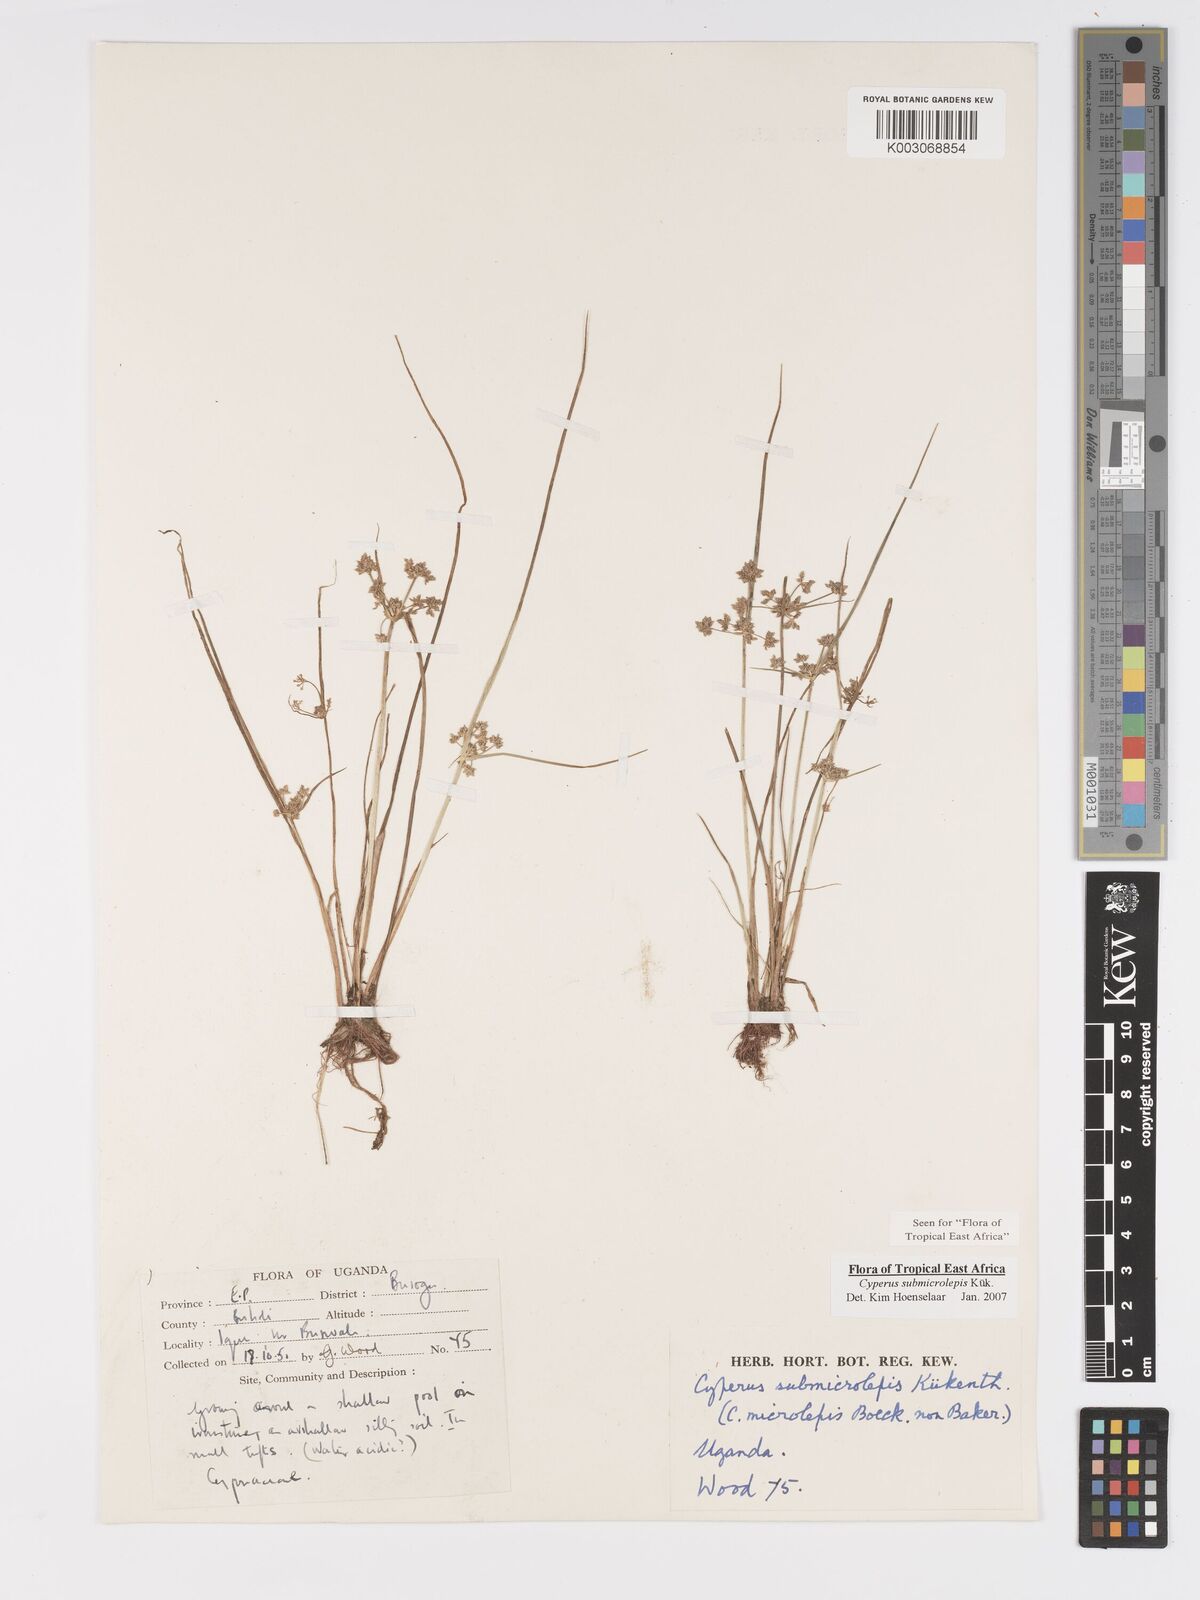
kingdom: Plantae
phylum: Tracheophyta
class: Liliopsida
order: Poales
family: Cyperaceae
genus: Cyperus
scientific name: Cyperus neoguinensis
